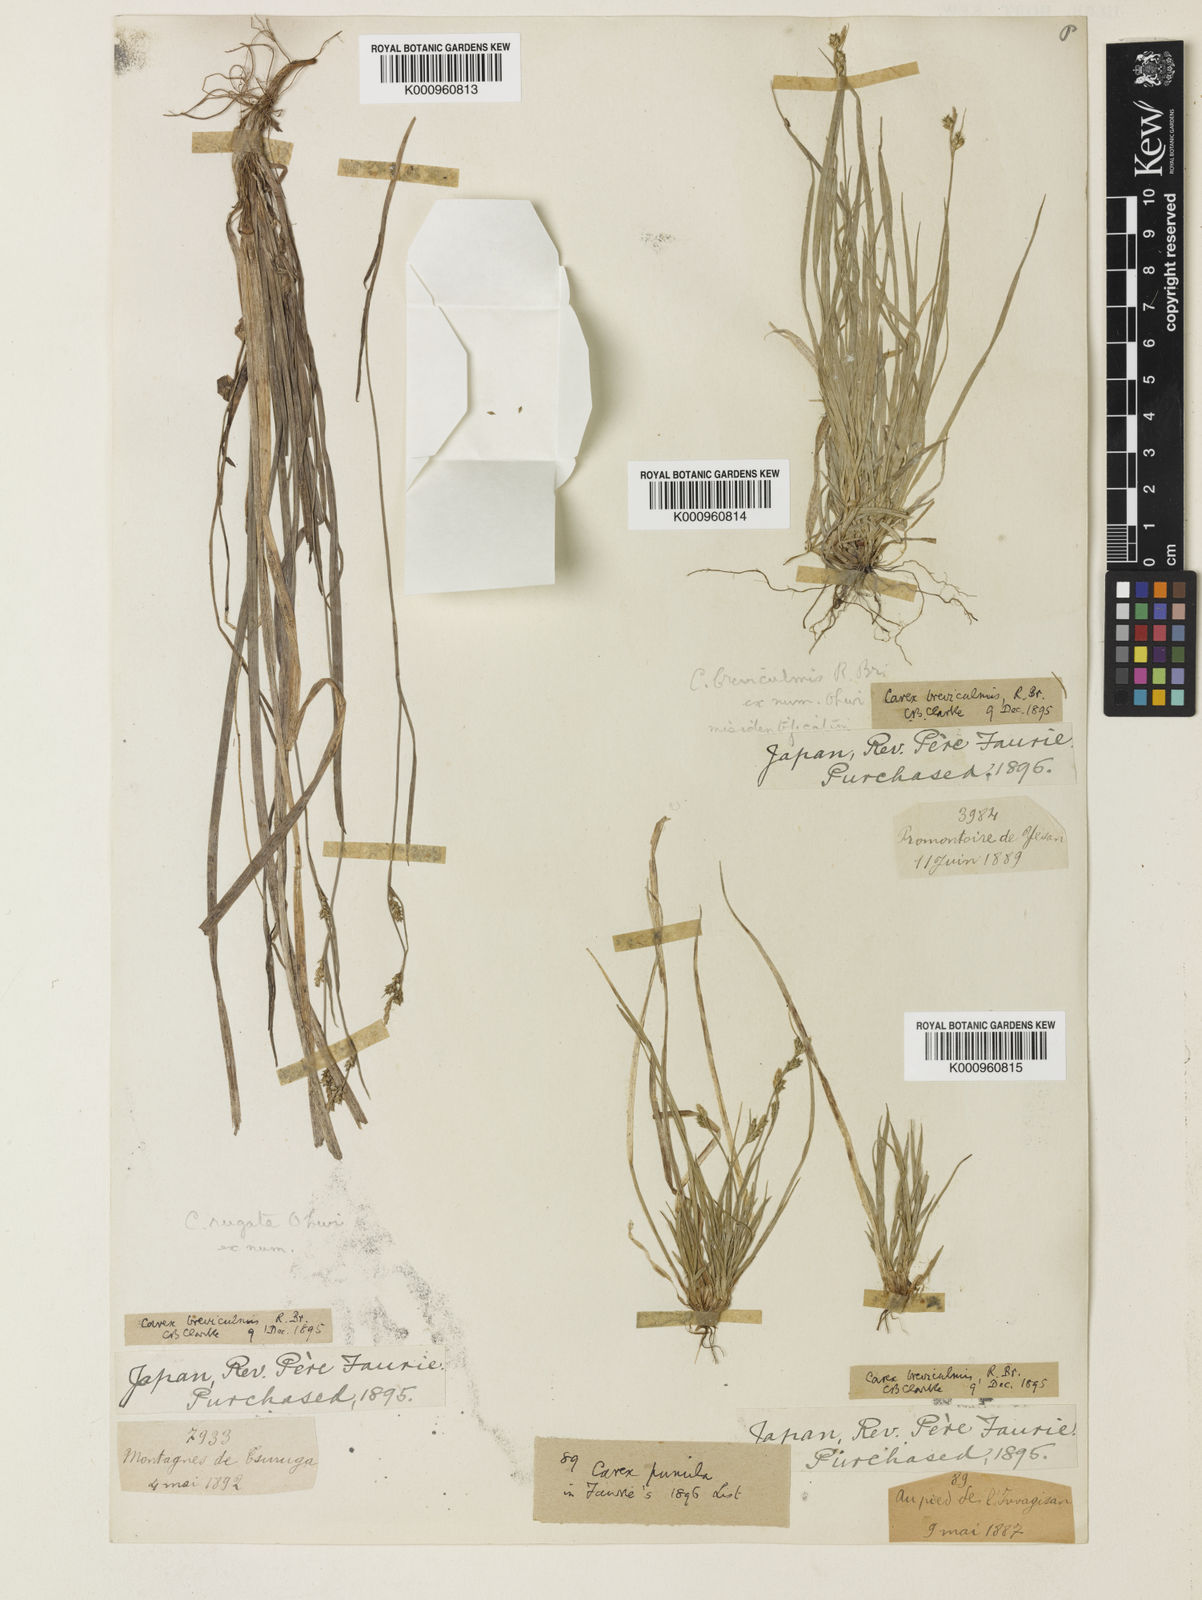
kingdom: Plantae
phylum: Tracheophyta
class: Liliopsida
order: Poales
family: Cyperaceae
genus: Carex
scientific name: Carex breviculmis
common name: Asian shortstem sedge
